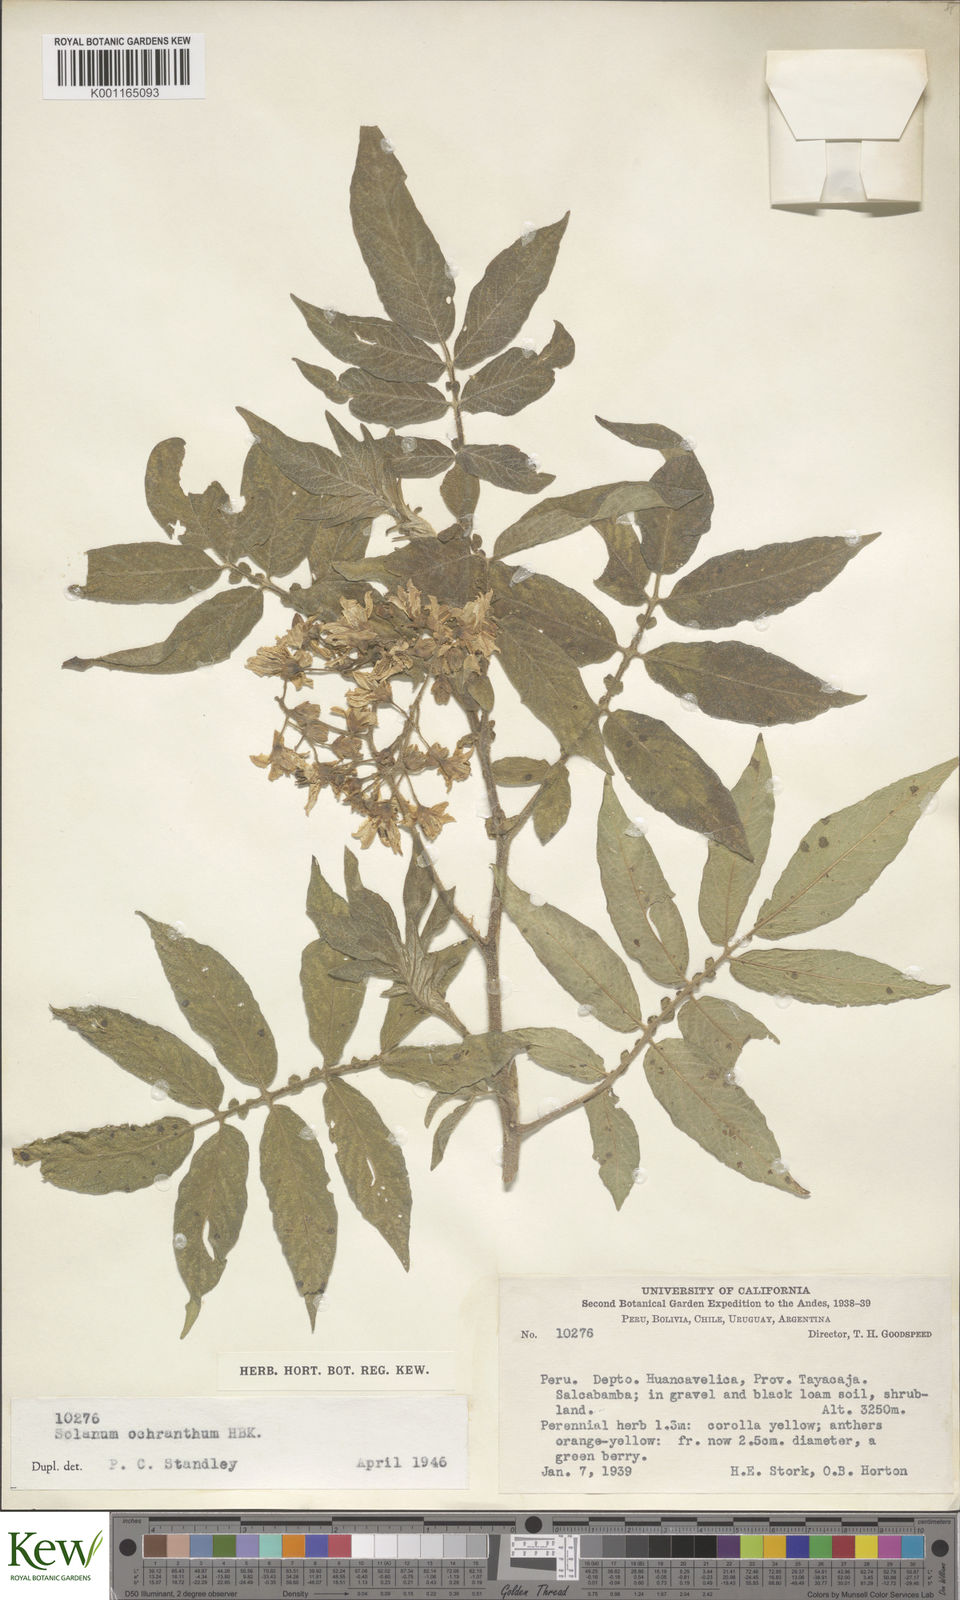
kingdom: Plantae
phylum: Tracheophyta
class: Magnoliopsida
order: Solanales
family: Solanaceae
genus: Solanum
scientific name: Solanum ochranthum
